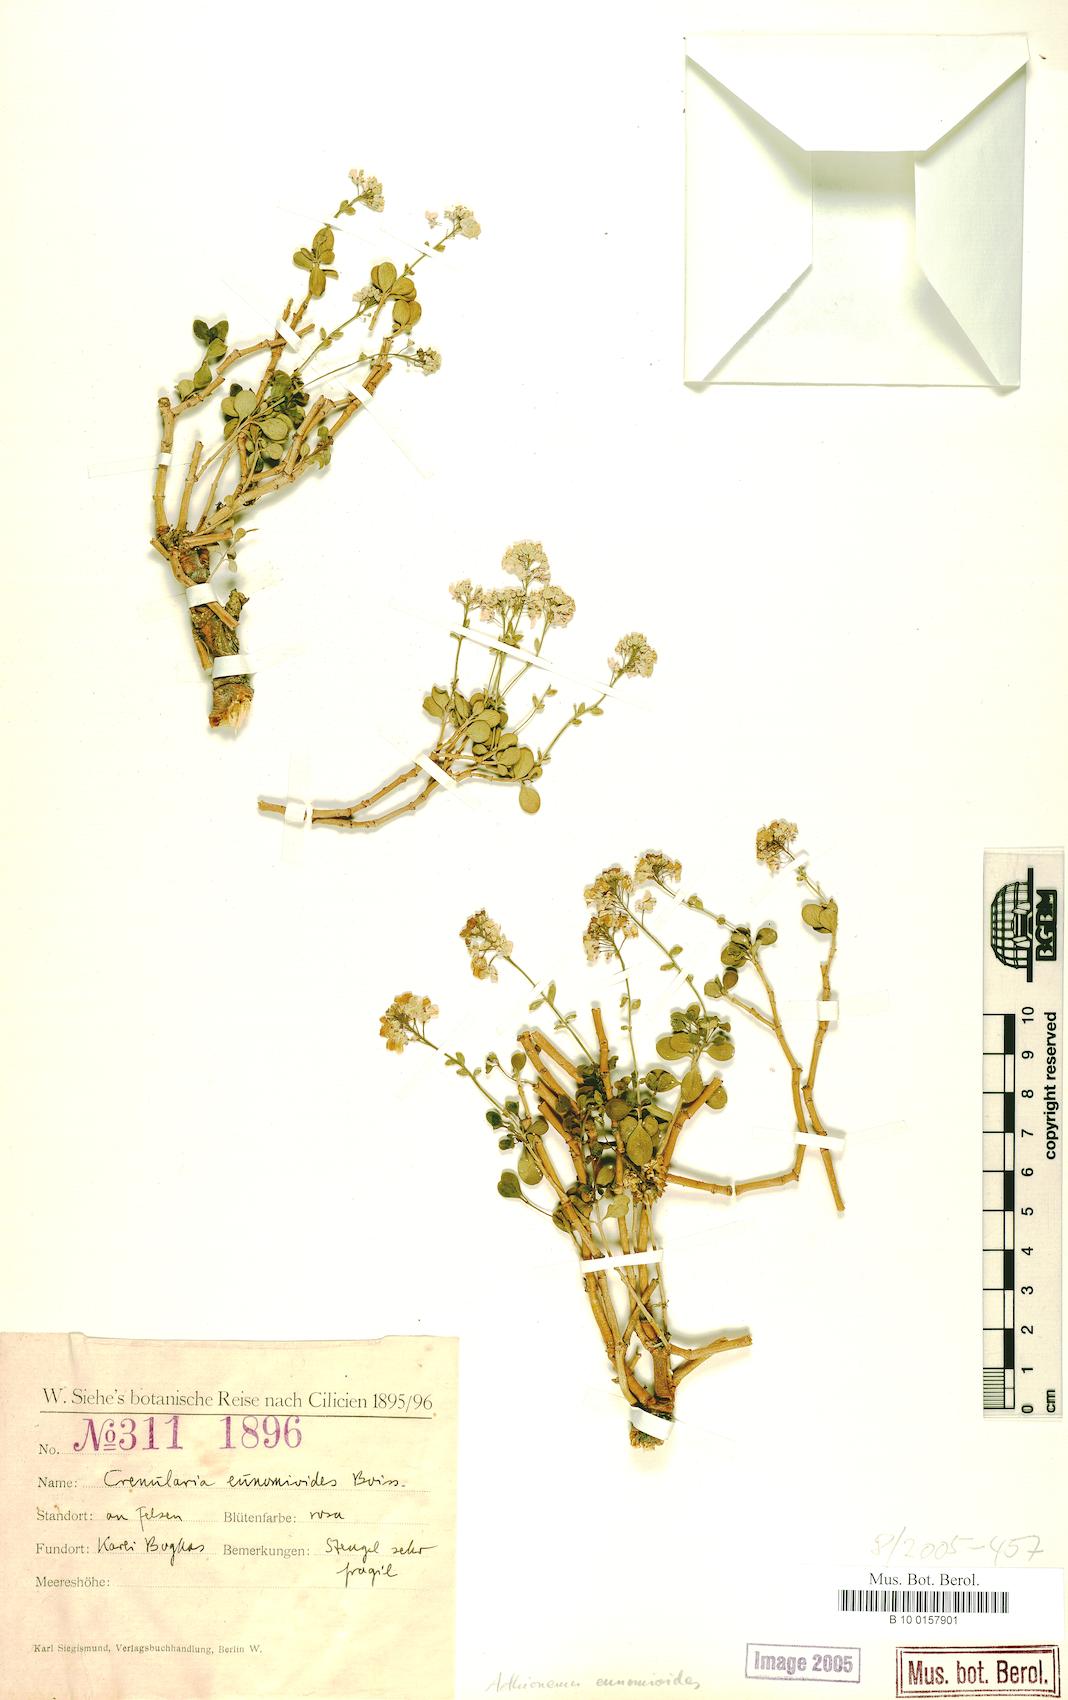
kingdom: Plantae
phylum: Tracheophyta
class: Magnoliopsida
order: Brassicales
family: Brassicaceae
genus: Aethionema
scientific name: Aethionema eunomioides
